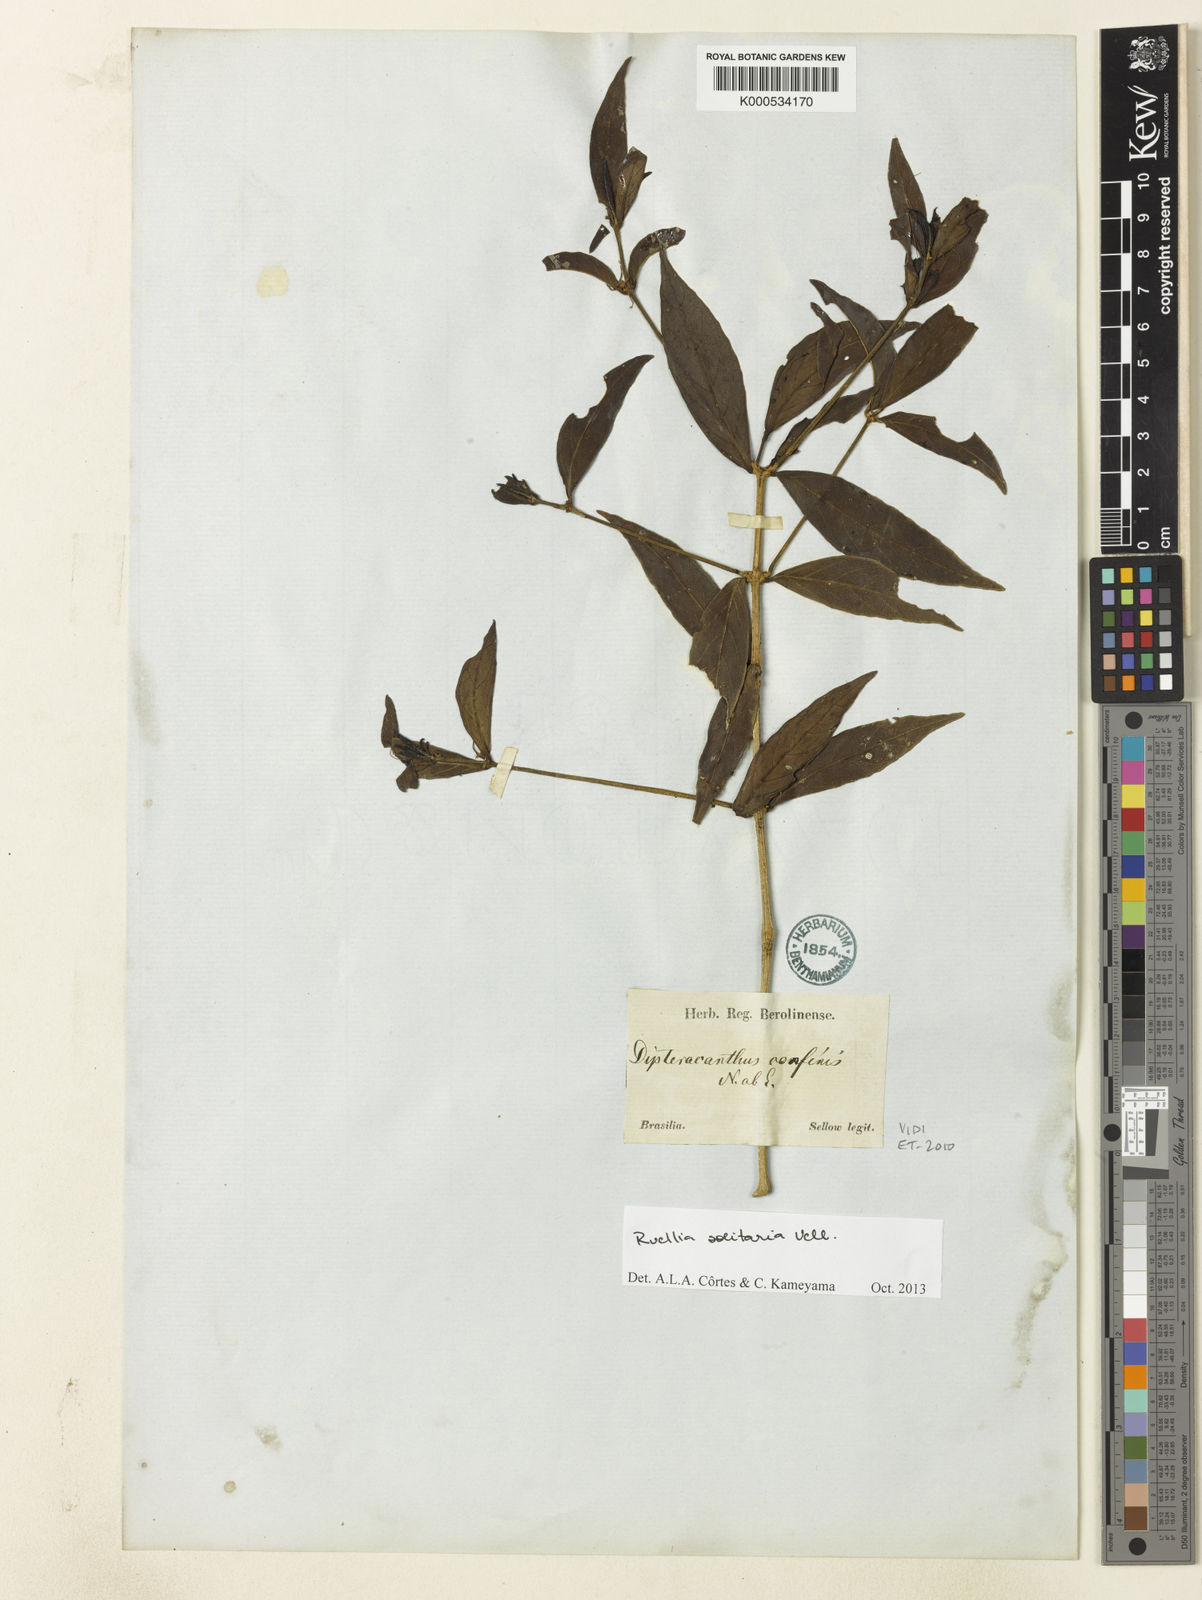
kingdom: Plantae
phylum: Tracheophyta
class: Magnoliopsida
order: Lamiales
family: Acanthaceae
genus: Ruellia
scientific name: Ruellia solitaria
